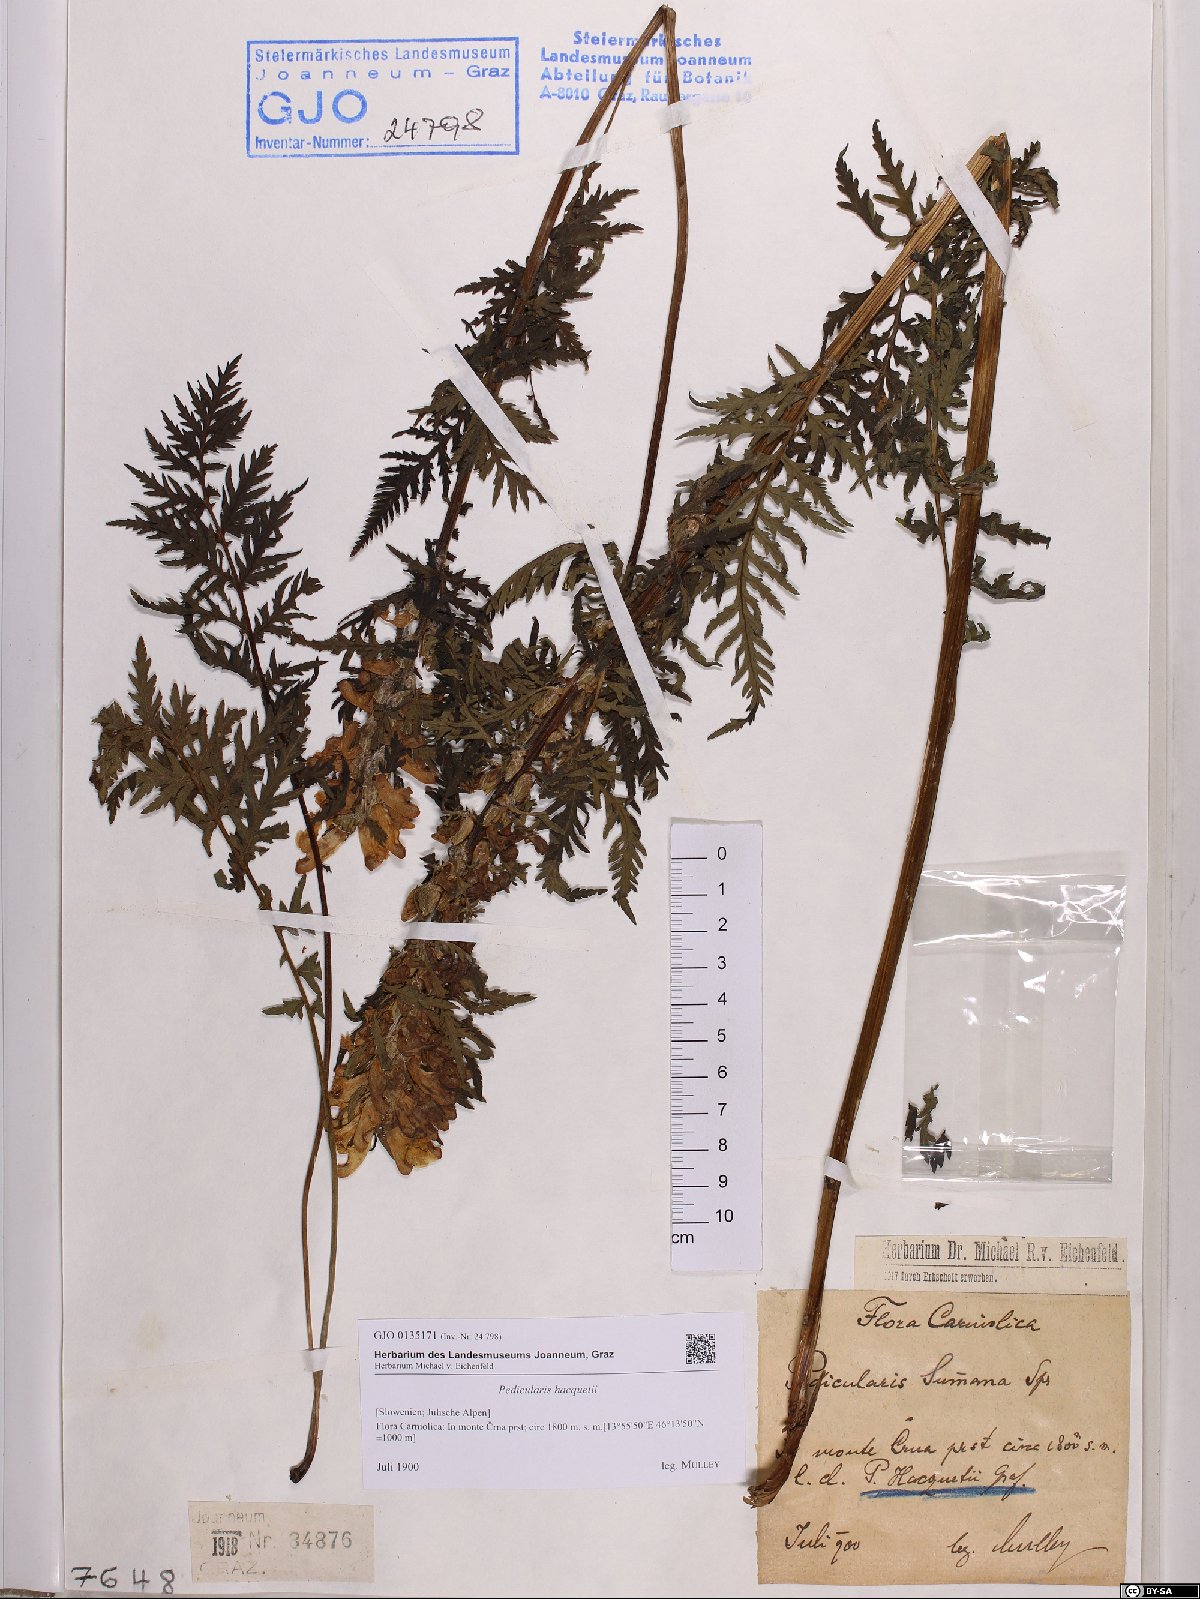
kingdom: Plantae
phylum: Tracheophyta
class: Magnoliopsida
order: Lamiales
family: Orobanchaceae
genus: Pedicularis
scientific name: Pedicularis hacquetii
